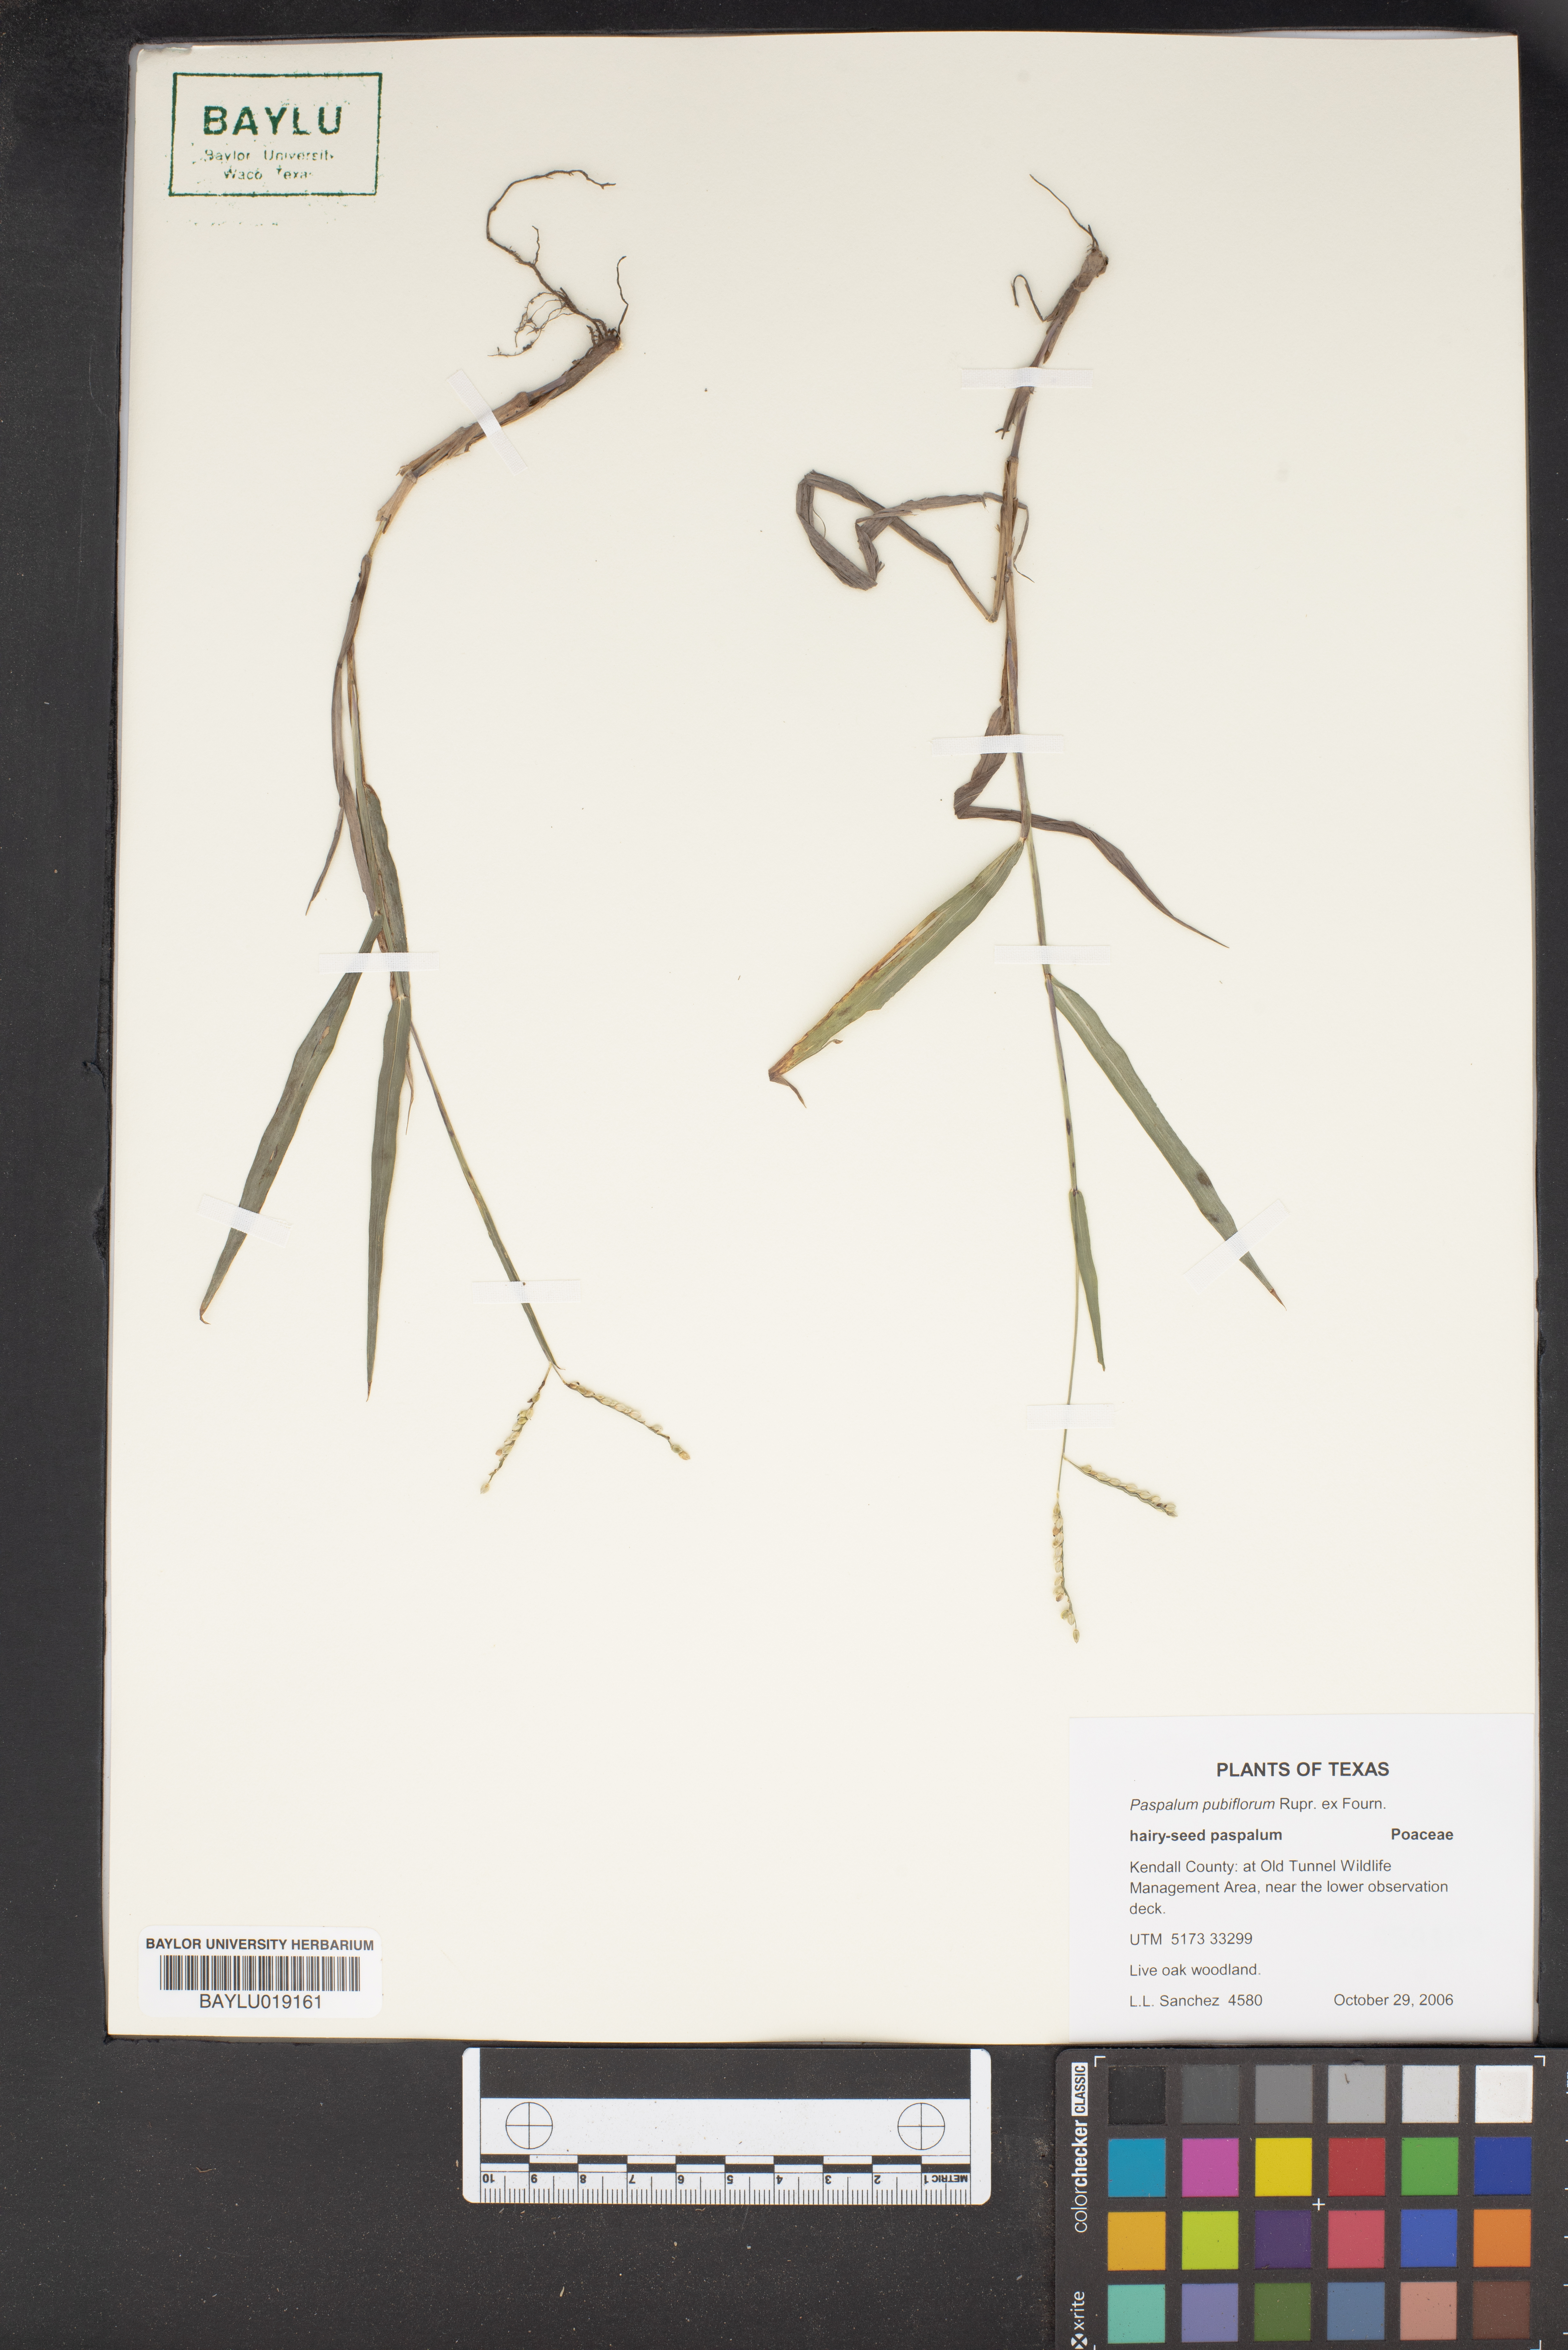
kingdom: Plantae
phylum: Tracheophyta
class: Liliopsida
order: Poales
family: Poaceae
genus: Paspalum
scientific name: Paspalum pubiflorum
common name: Hairy-seed paspalum
